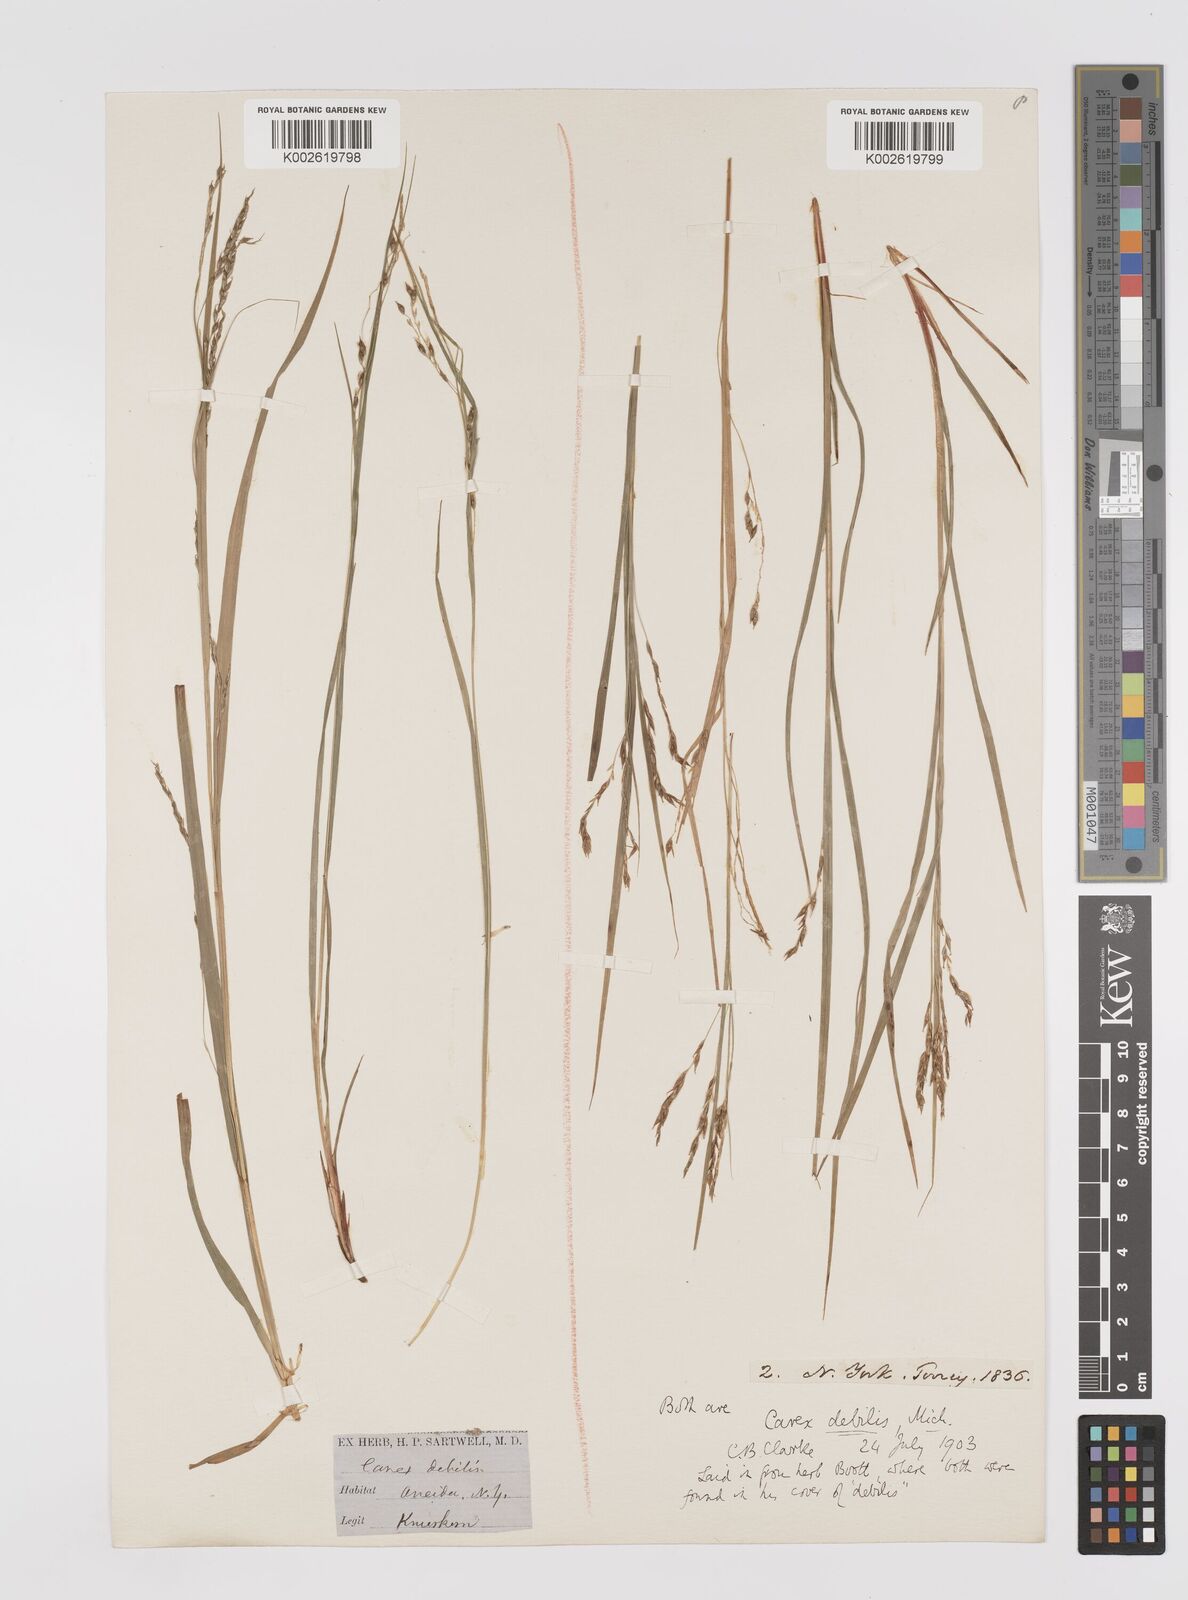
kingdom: Plantae
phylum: Tracheophyta
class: Liliopsida
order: Poales
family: Cyperaceae
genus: Carex
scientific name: Carex debilis
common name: White-edge sedge
